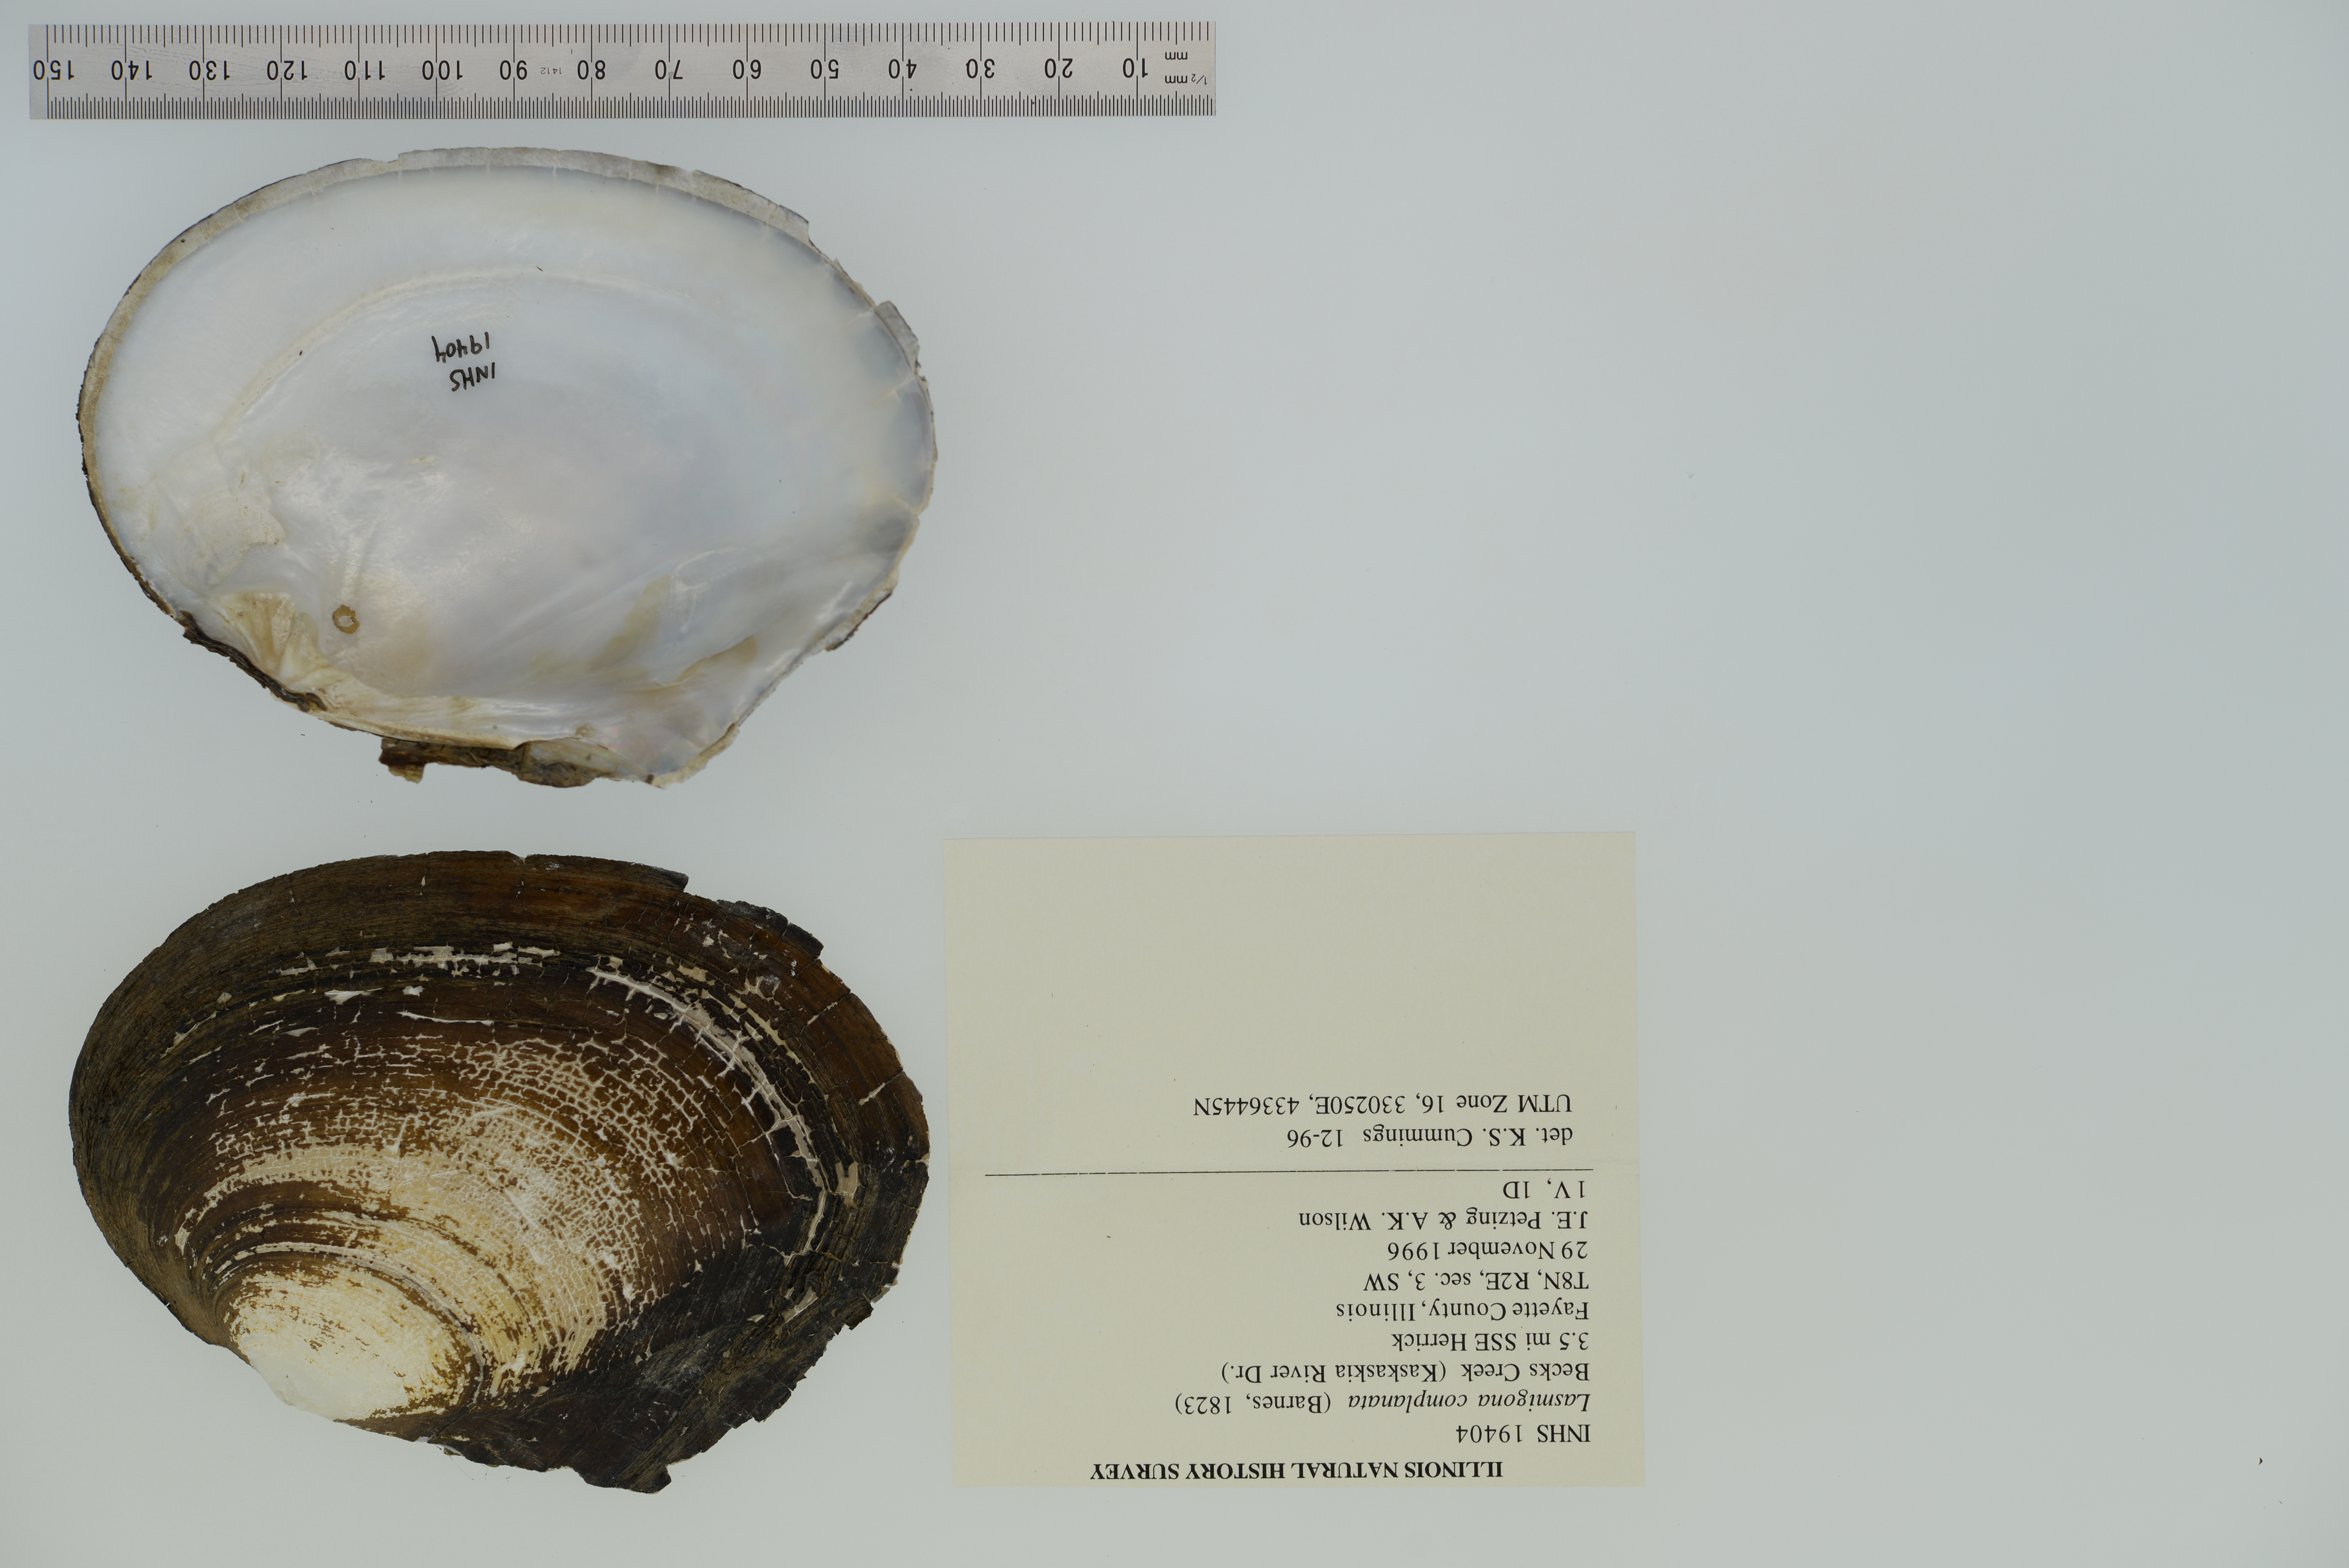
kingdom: Animalia
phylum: Mollusca
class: Bivalvia
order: Unionida
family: Unionidae
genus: Lasmigona
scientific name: Lasmigona complanata
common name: White heelsplitter
